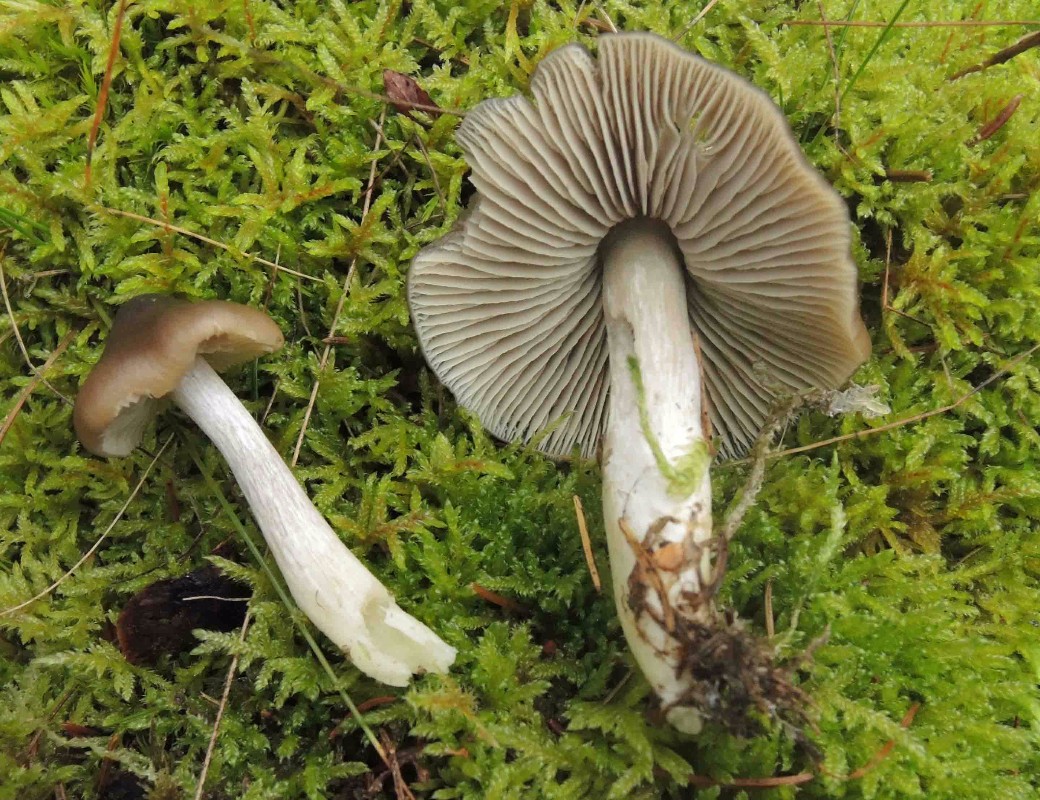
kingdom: Fungi
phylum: Basidiomycota
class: Agaricomycetes
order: Agaricales
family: Entolomataceae
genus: Entocybe
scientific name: Entocybe turbida
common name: plantage-rødblad
